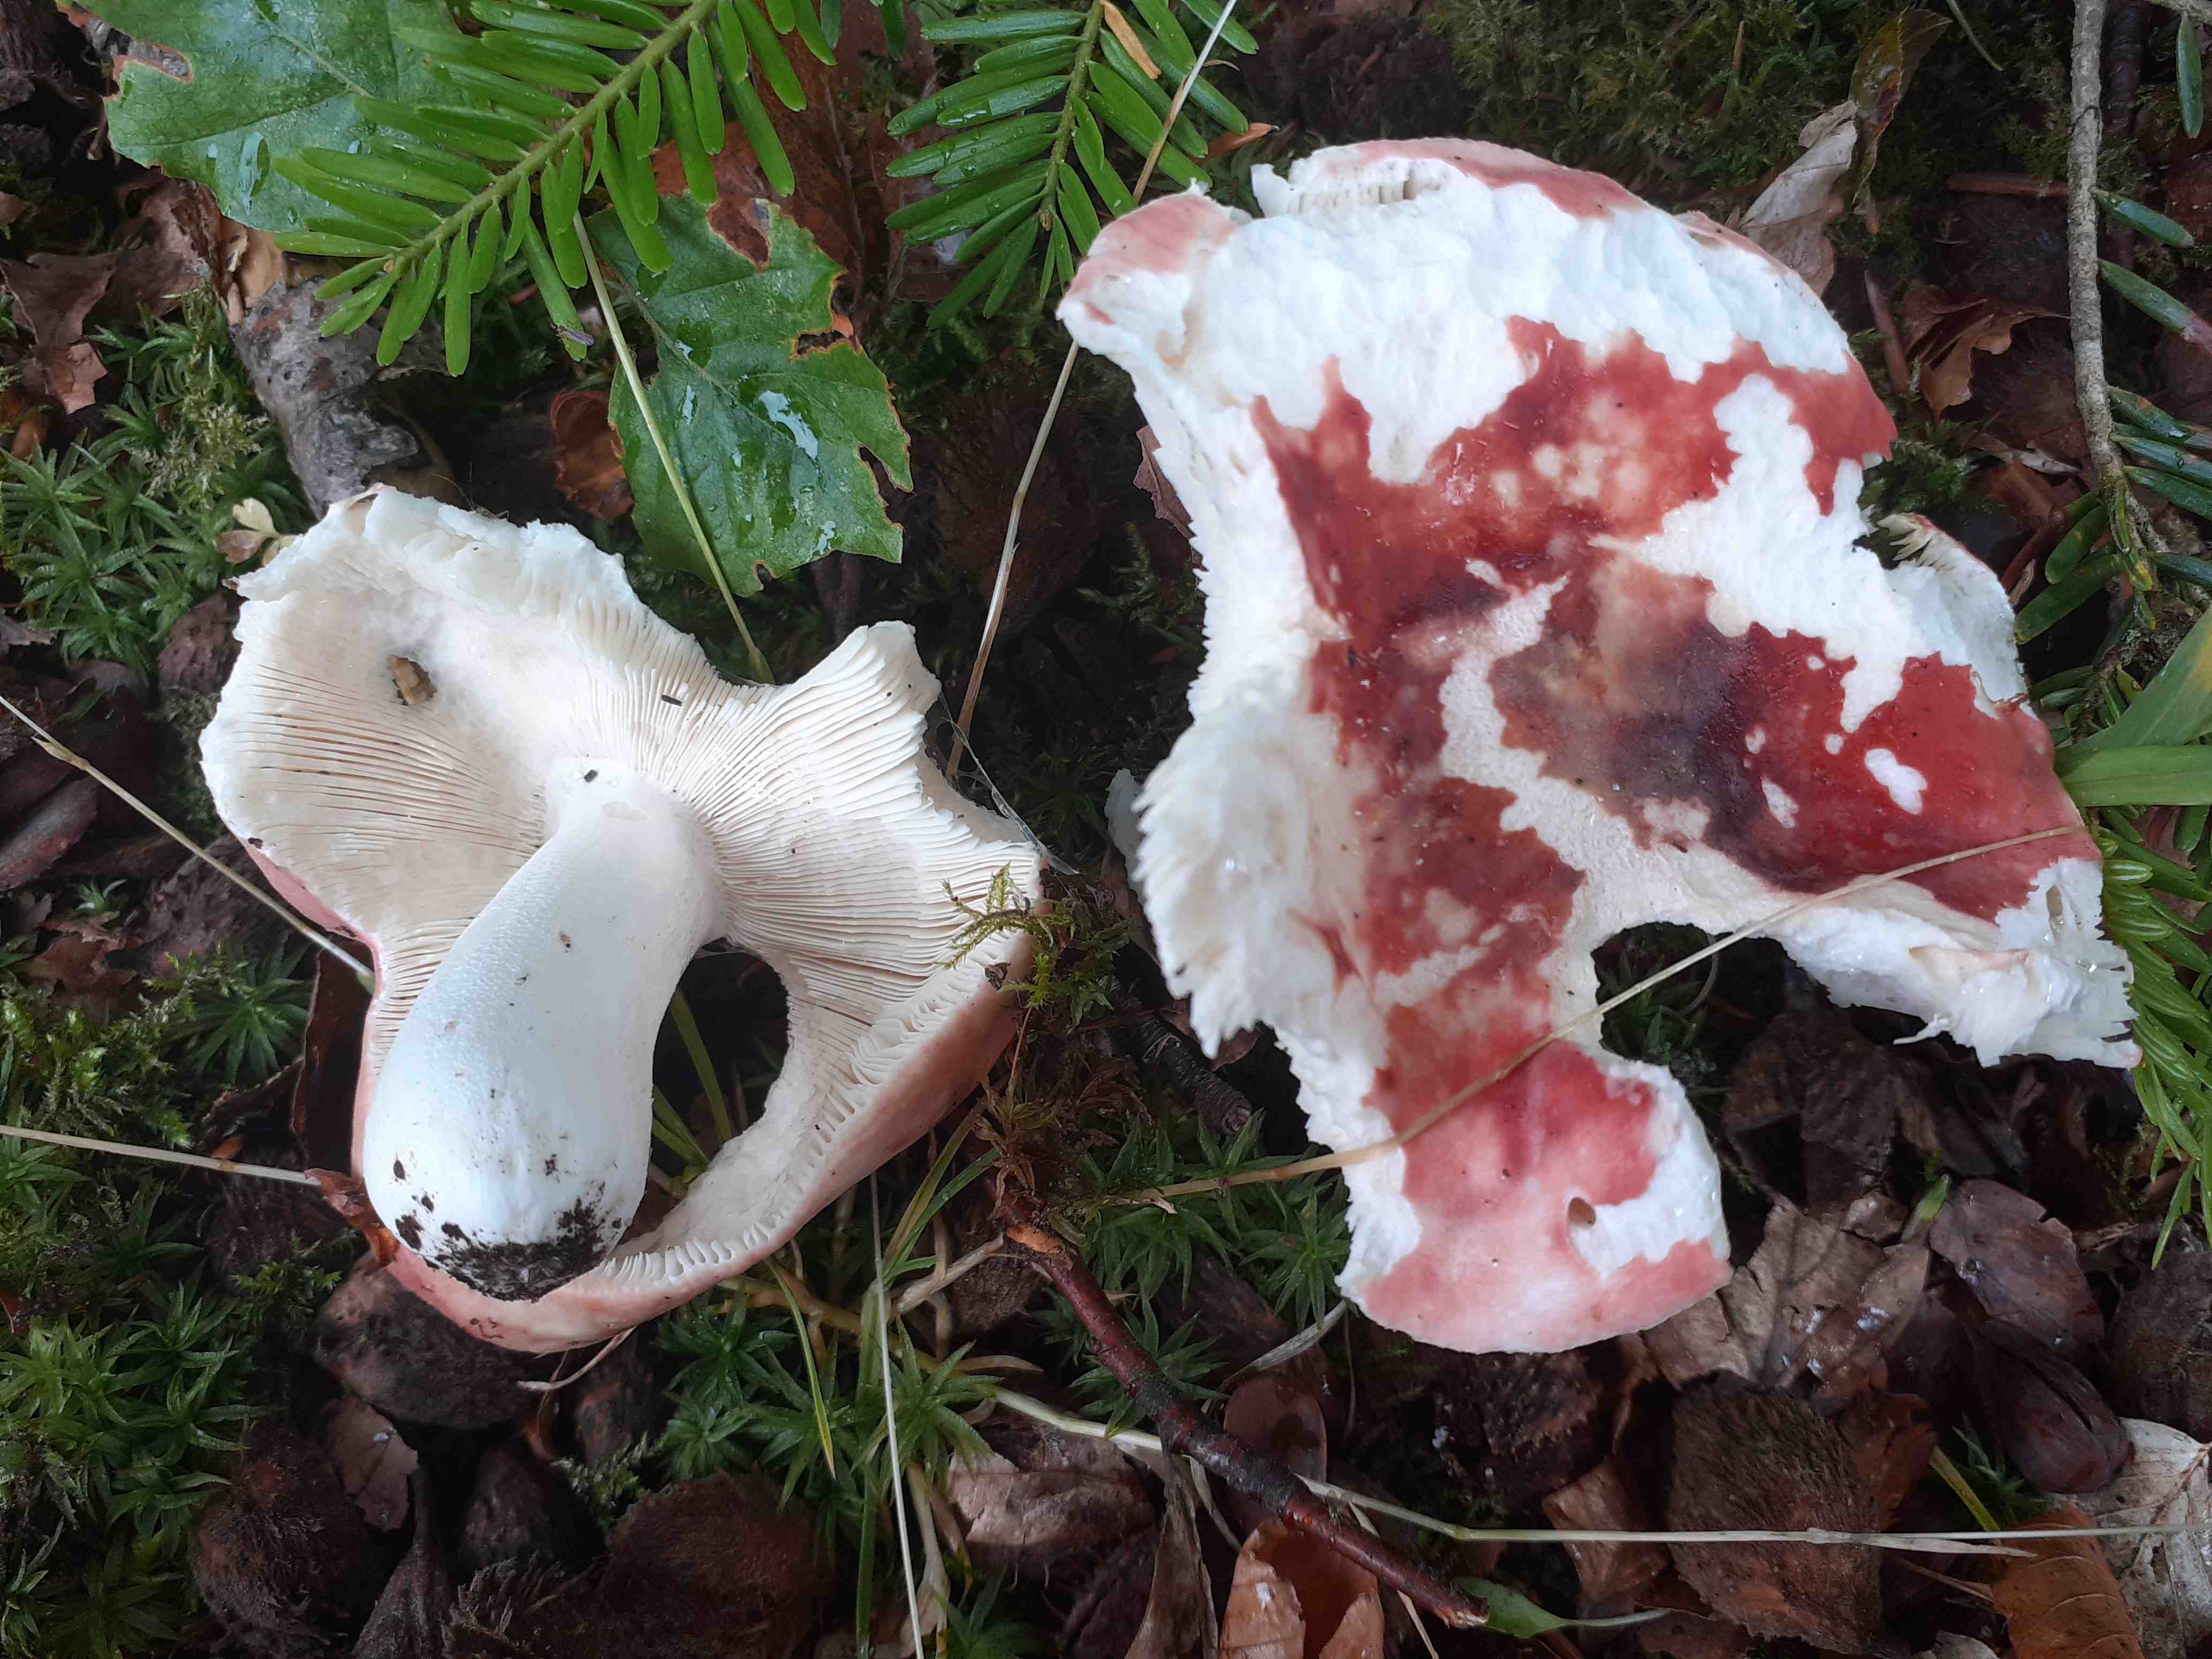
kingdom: Fungi
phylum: Basidiomycota
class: Agaricomycetes
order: Russulales
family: Russulaceae
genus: Russula
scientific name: Russula aurora
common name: rosa skørhat
